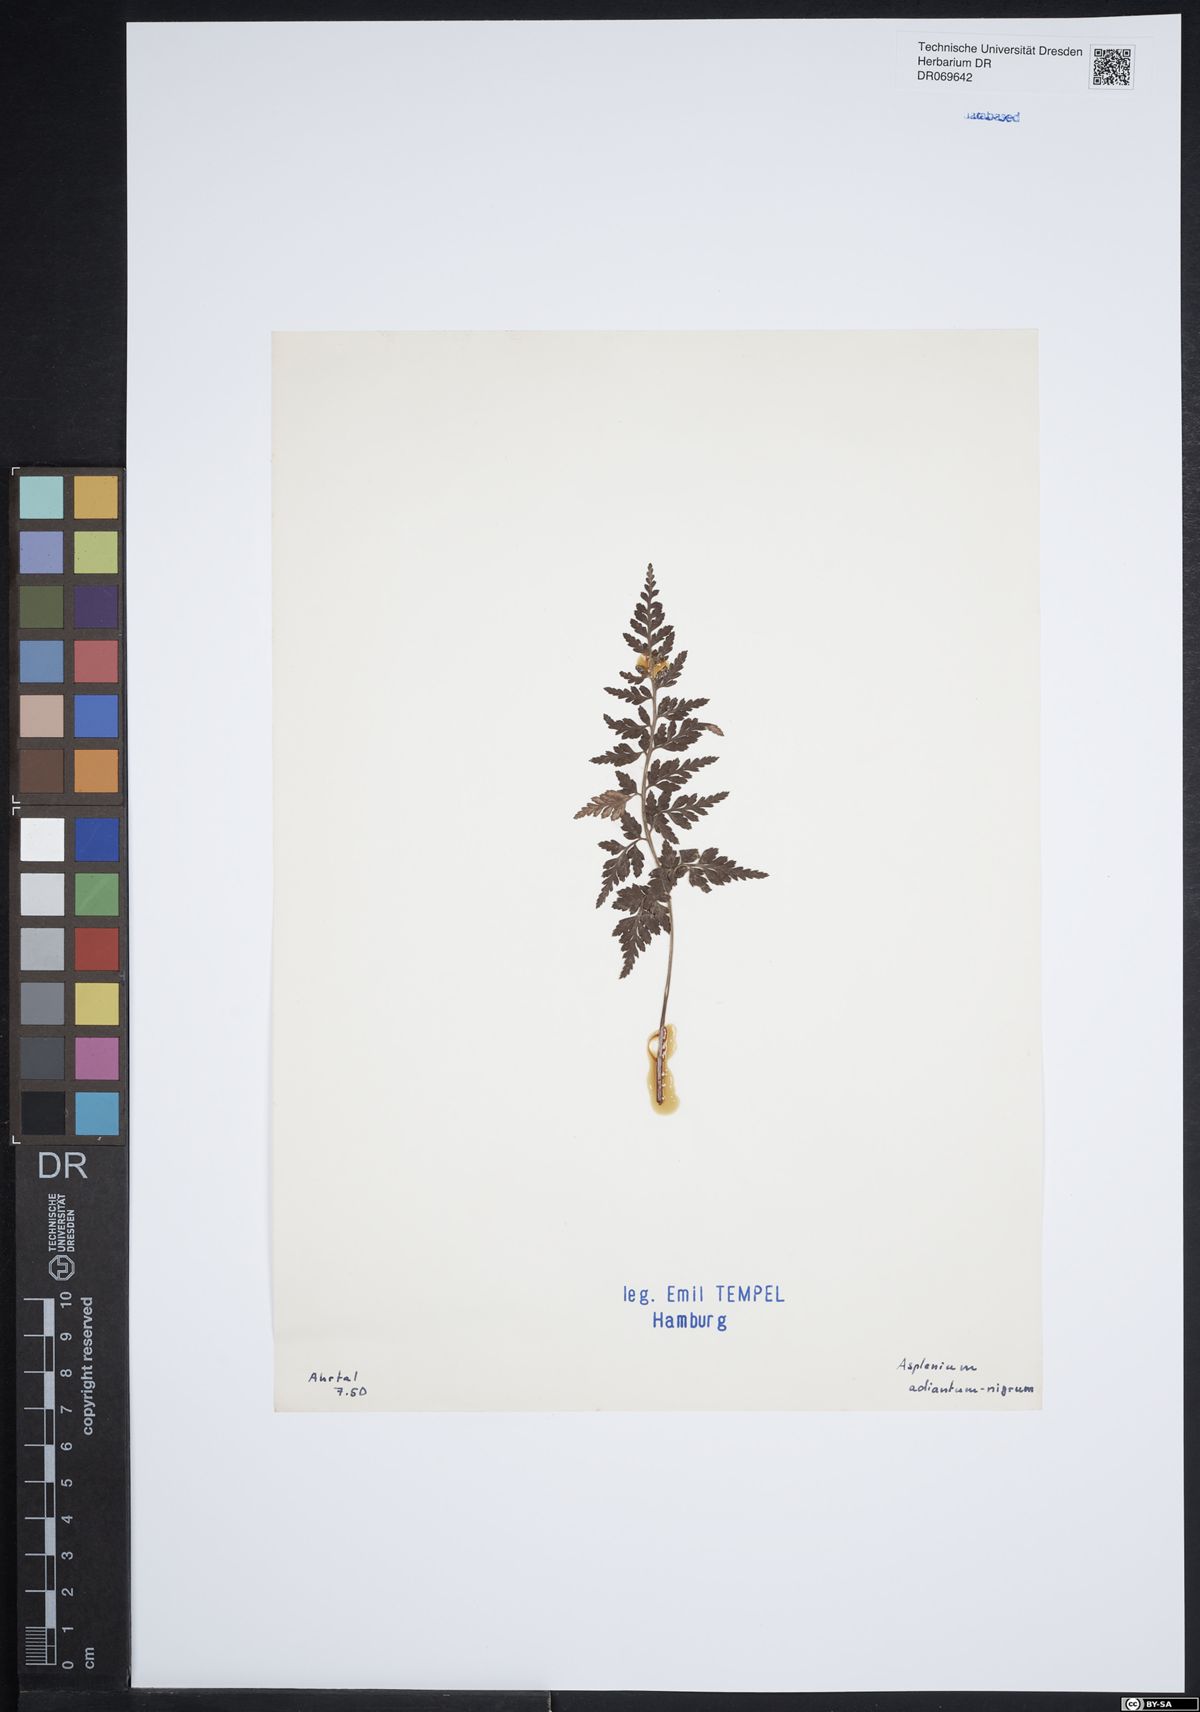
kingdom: Plantae
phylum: Tracheophyta
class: Polypodiopsida
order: Polypodiales
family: Aspleniaceae
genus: Asplenium
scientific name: Asplenium adiantum-nigrum
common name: Black spleenwort
